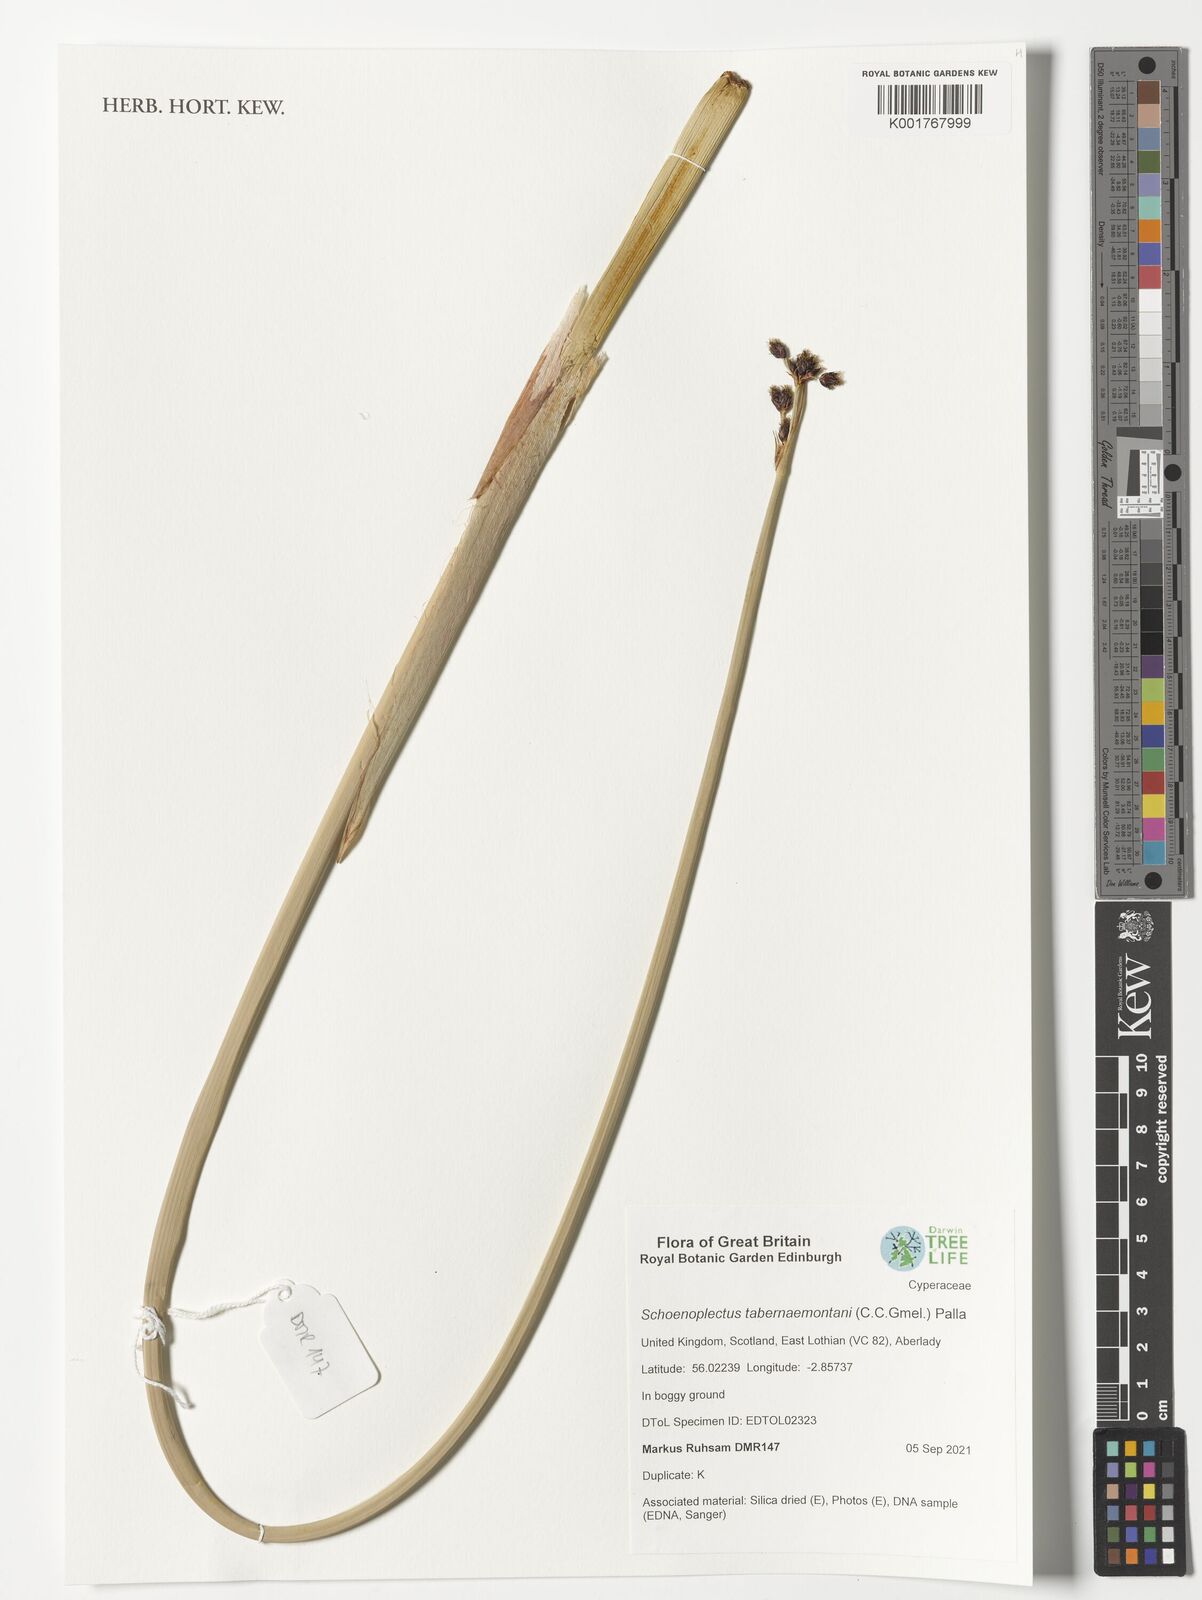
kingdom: Plantae
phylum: Tracheophyta
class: Liliopsida
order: Poales
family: Cyperaceae
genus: Schoenoplectus
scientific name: Schoenoplectus tabernaemontani
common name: Grey club-rush
